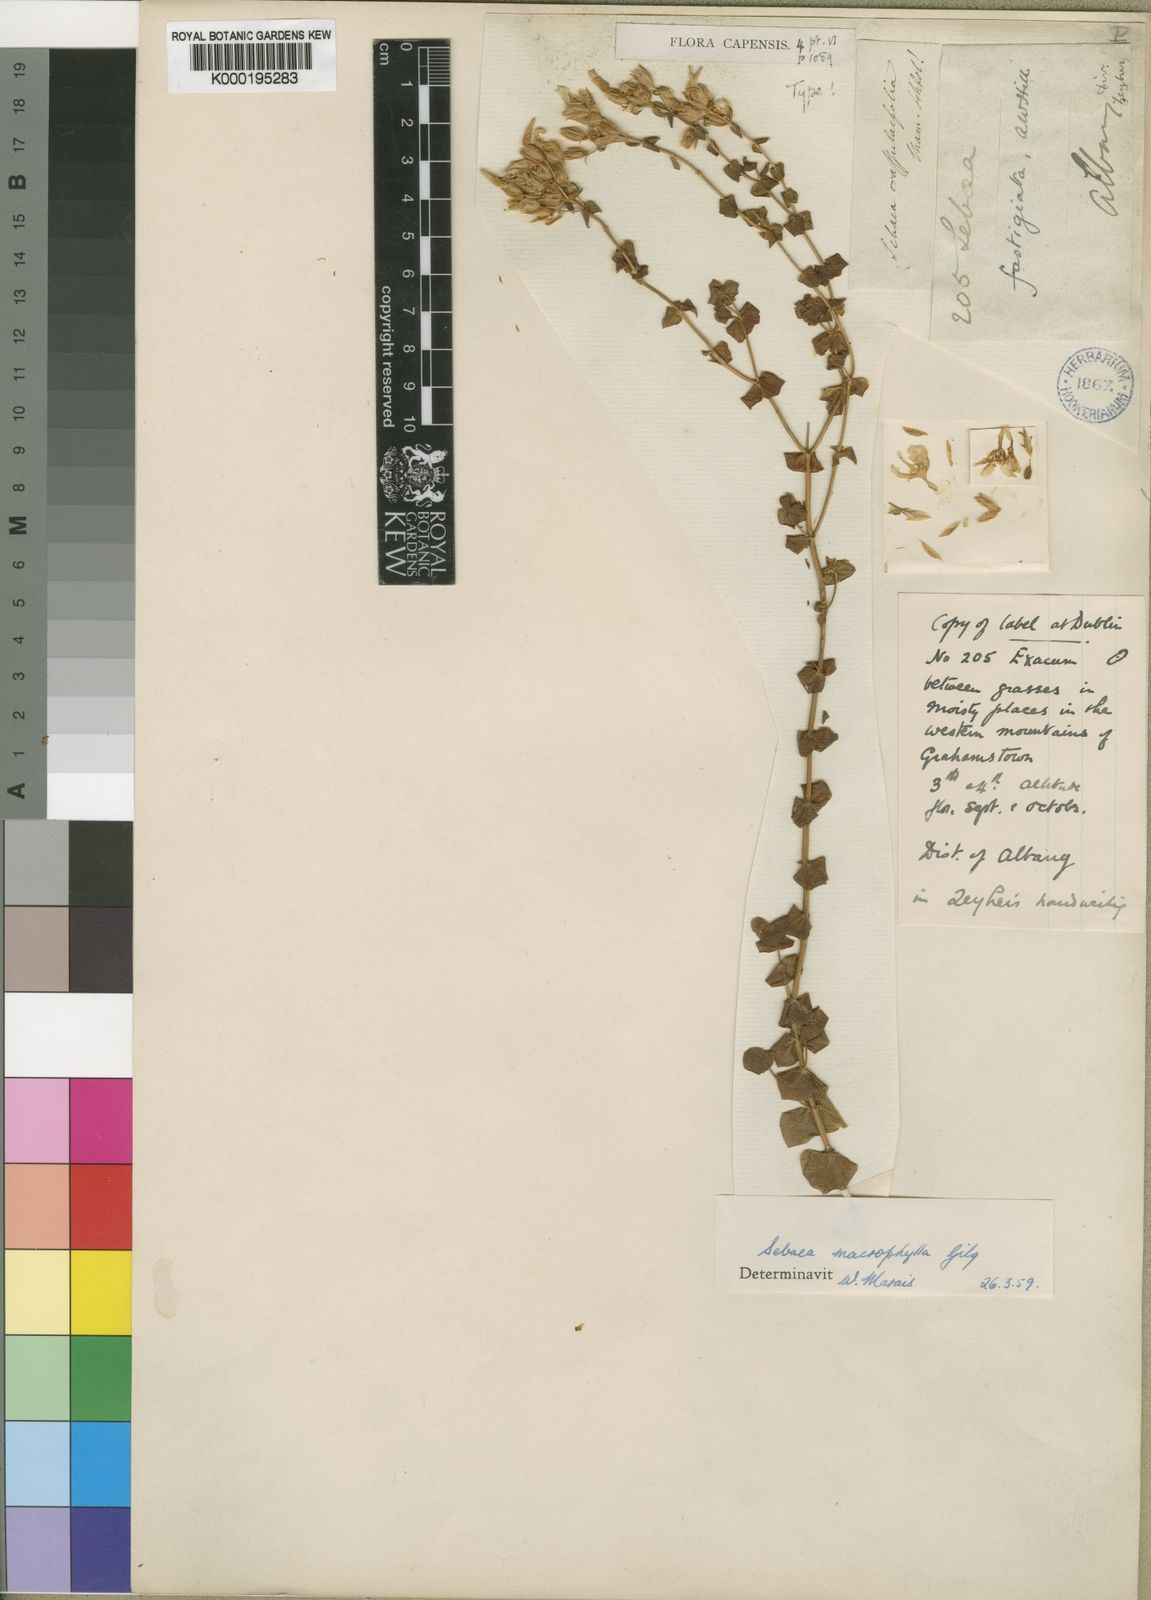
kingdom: Plantae
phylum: Tracheophyta
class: Magnoliopsida
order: Gentianales
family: Gentianaceae
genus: Sebaea
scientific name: Sebaea macrophylla
